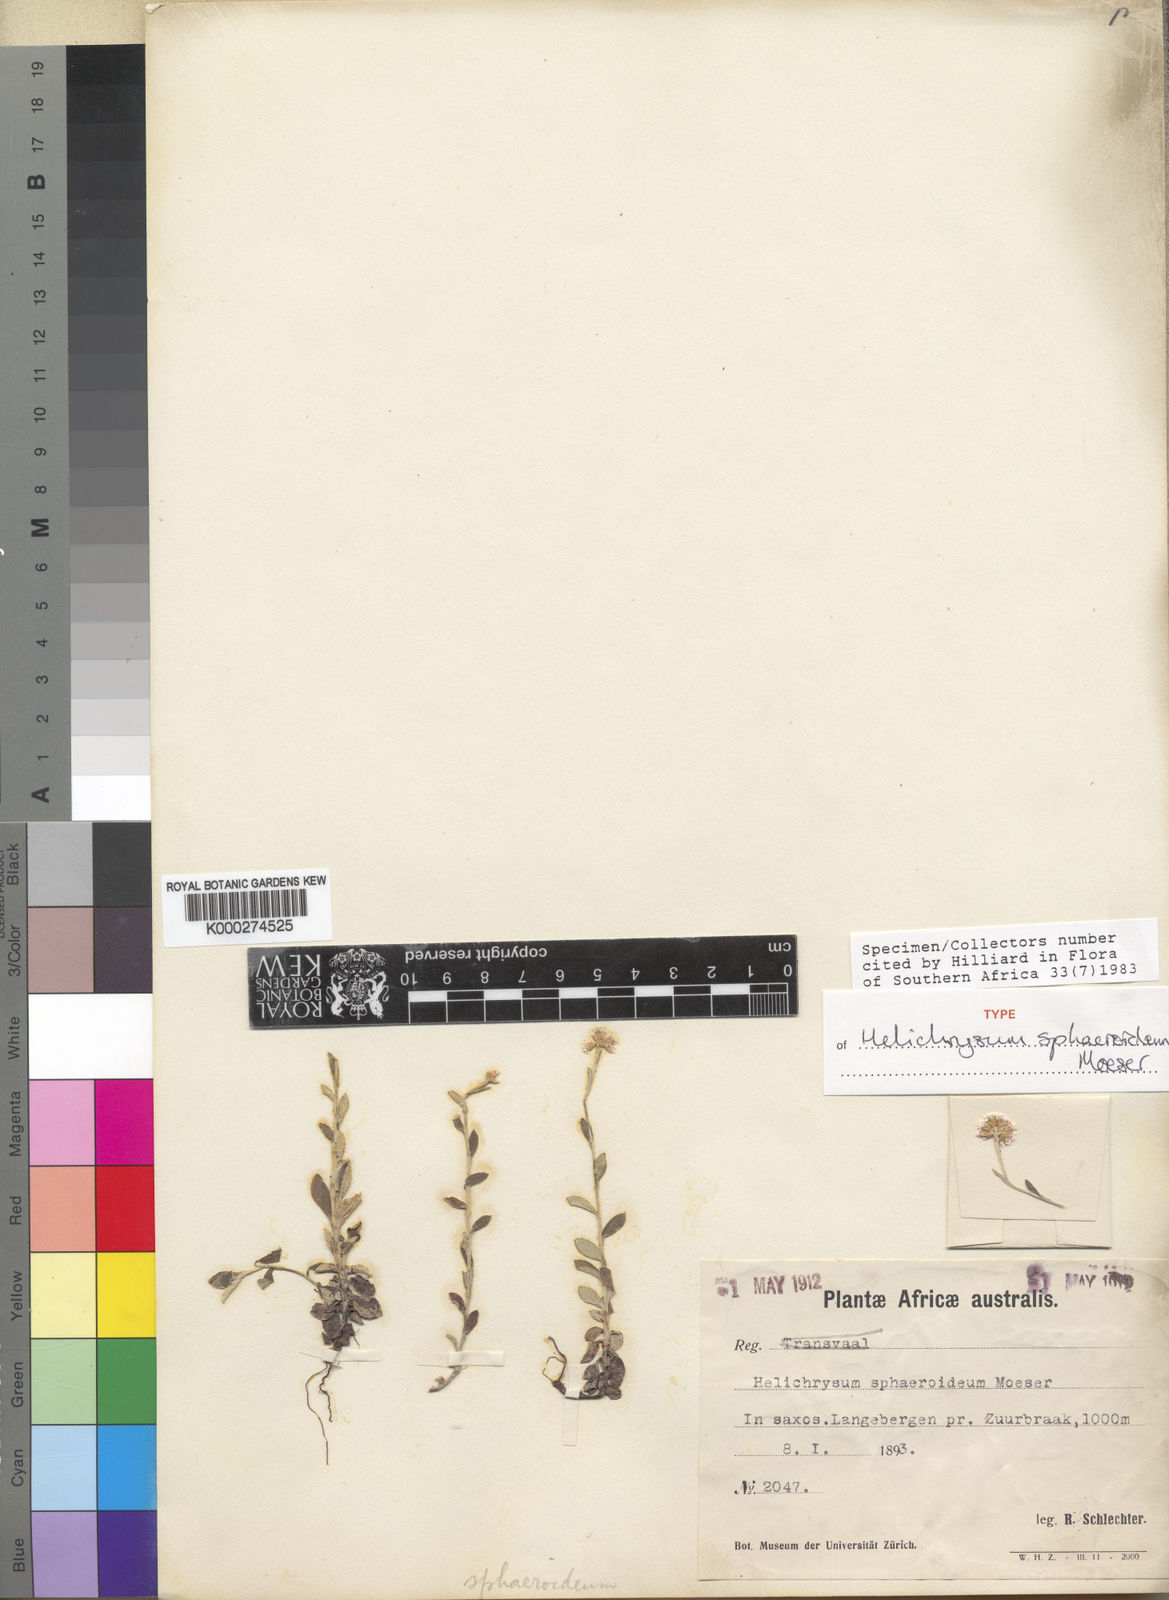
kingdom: Plantae
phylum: Tracheophyta
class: Magnoliopsida
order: Asterales
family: Asteraceae
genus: Helichrysum
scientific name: Helichrysum sphaeroideum
